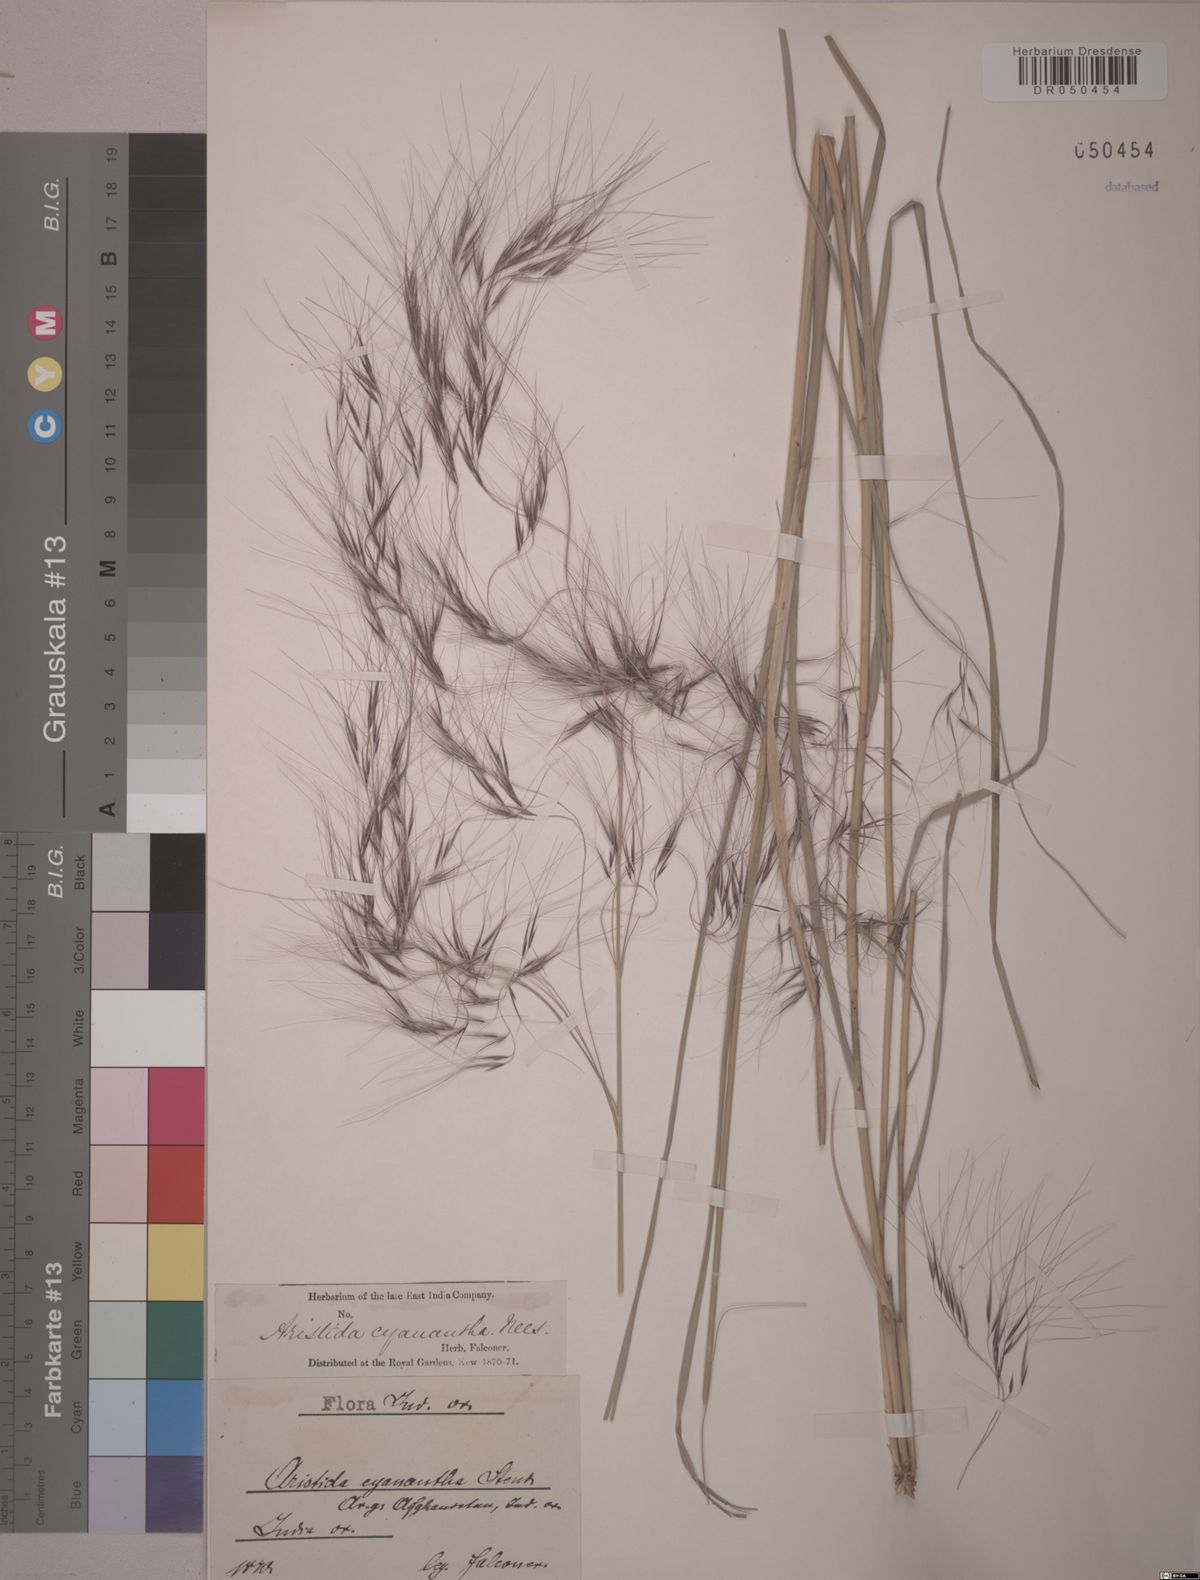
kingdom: Plantae
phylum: Tracheophyta
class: Liliopsida
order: Poales
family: Poaceae
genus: Aristida
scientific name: Aristida cyanantha
